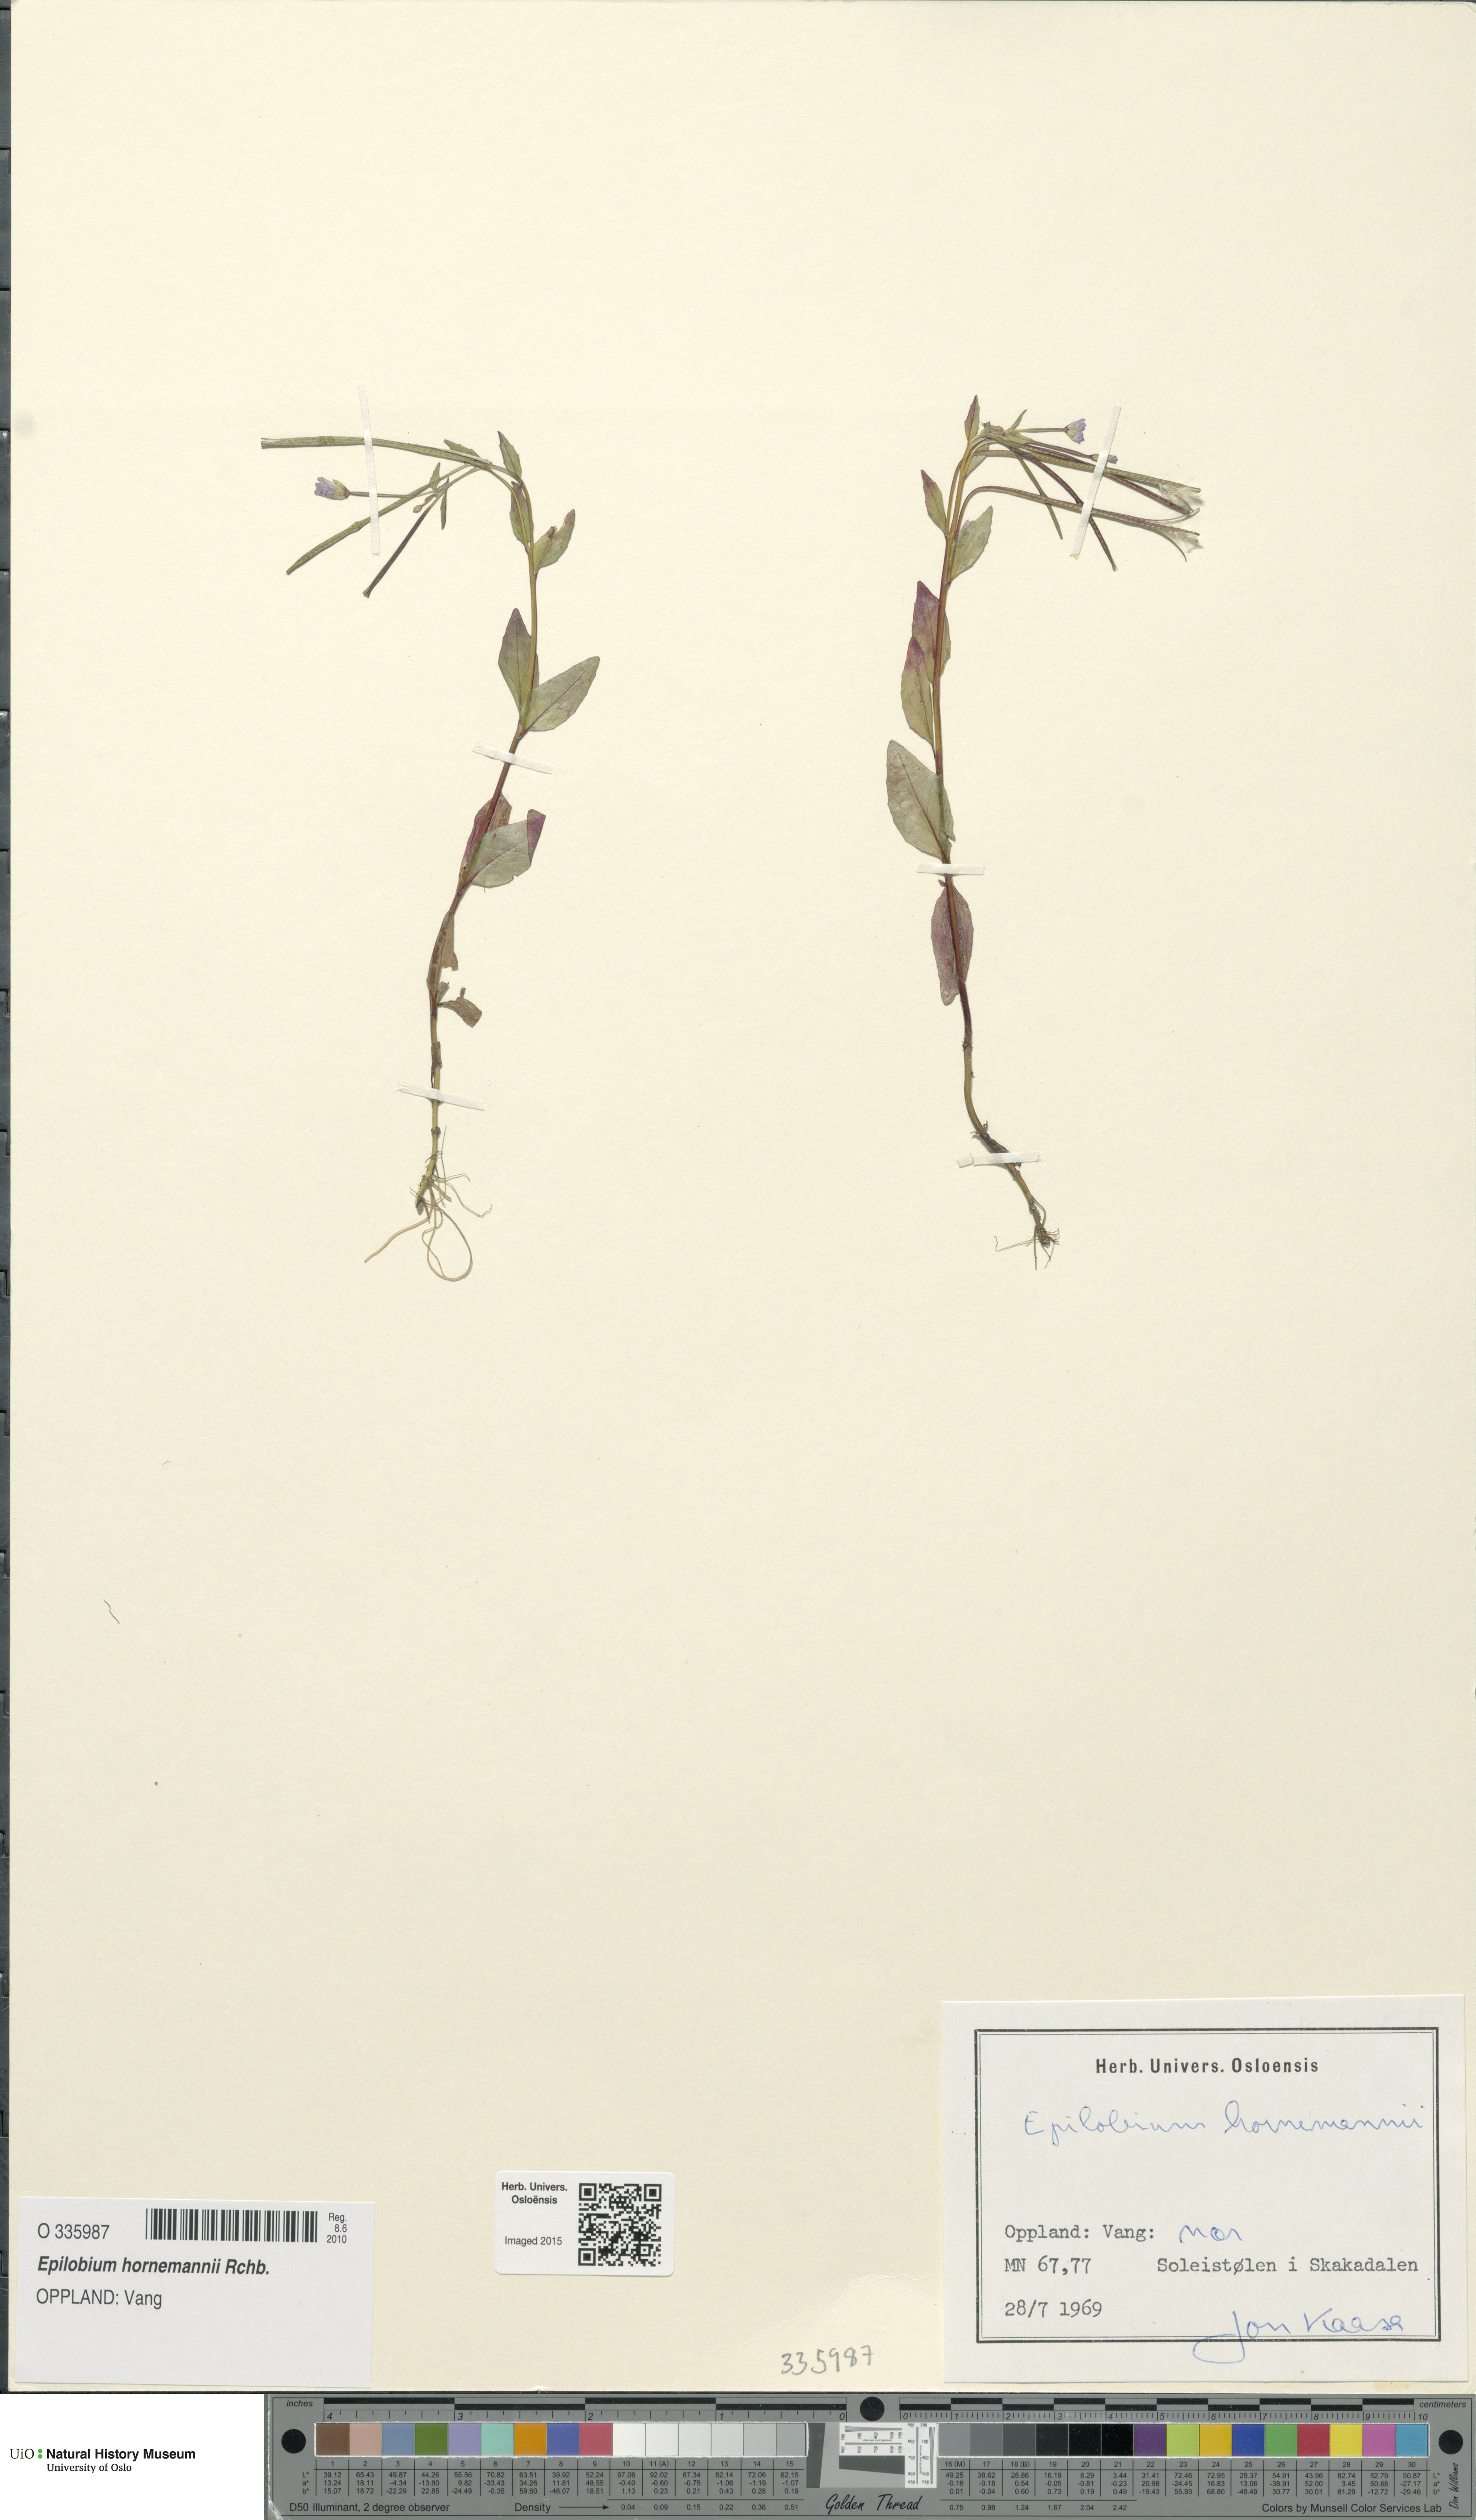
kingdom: Plantae
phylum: Tracheophyta
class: Magnoliopsida
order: Myrtales
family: Onagraceae
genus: Epilobium
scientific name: Epilobium hornemannii
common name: Hornemann's willowherb
